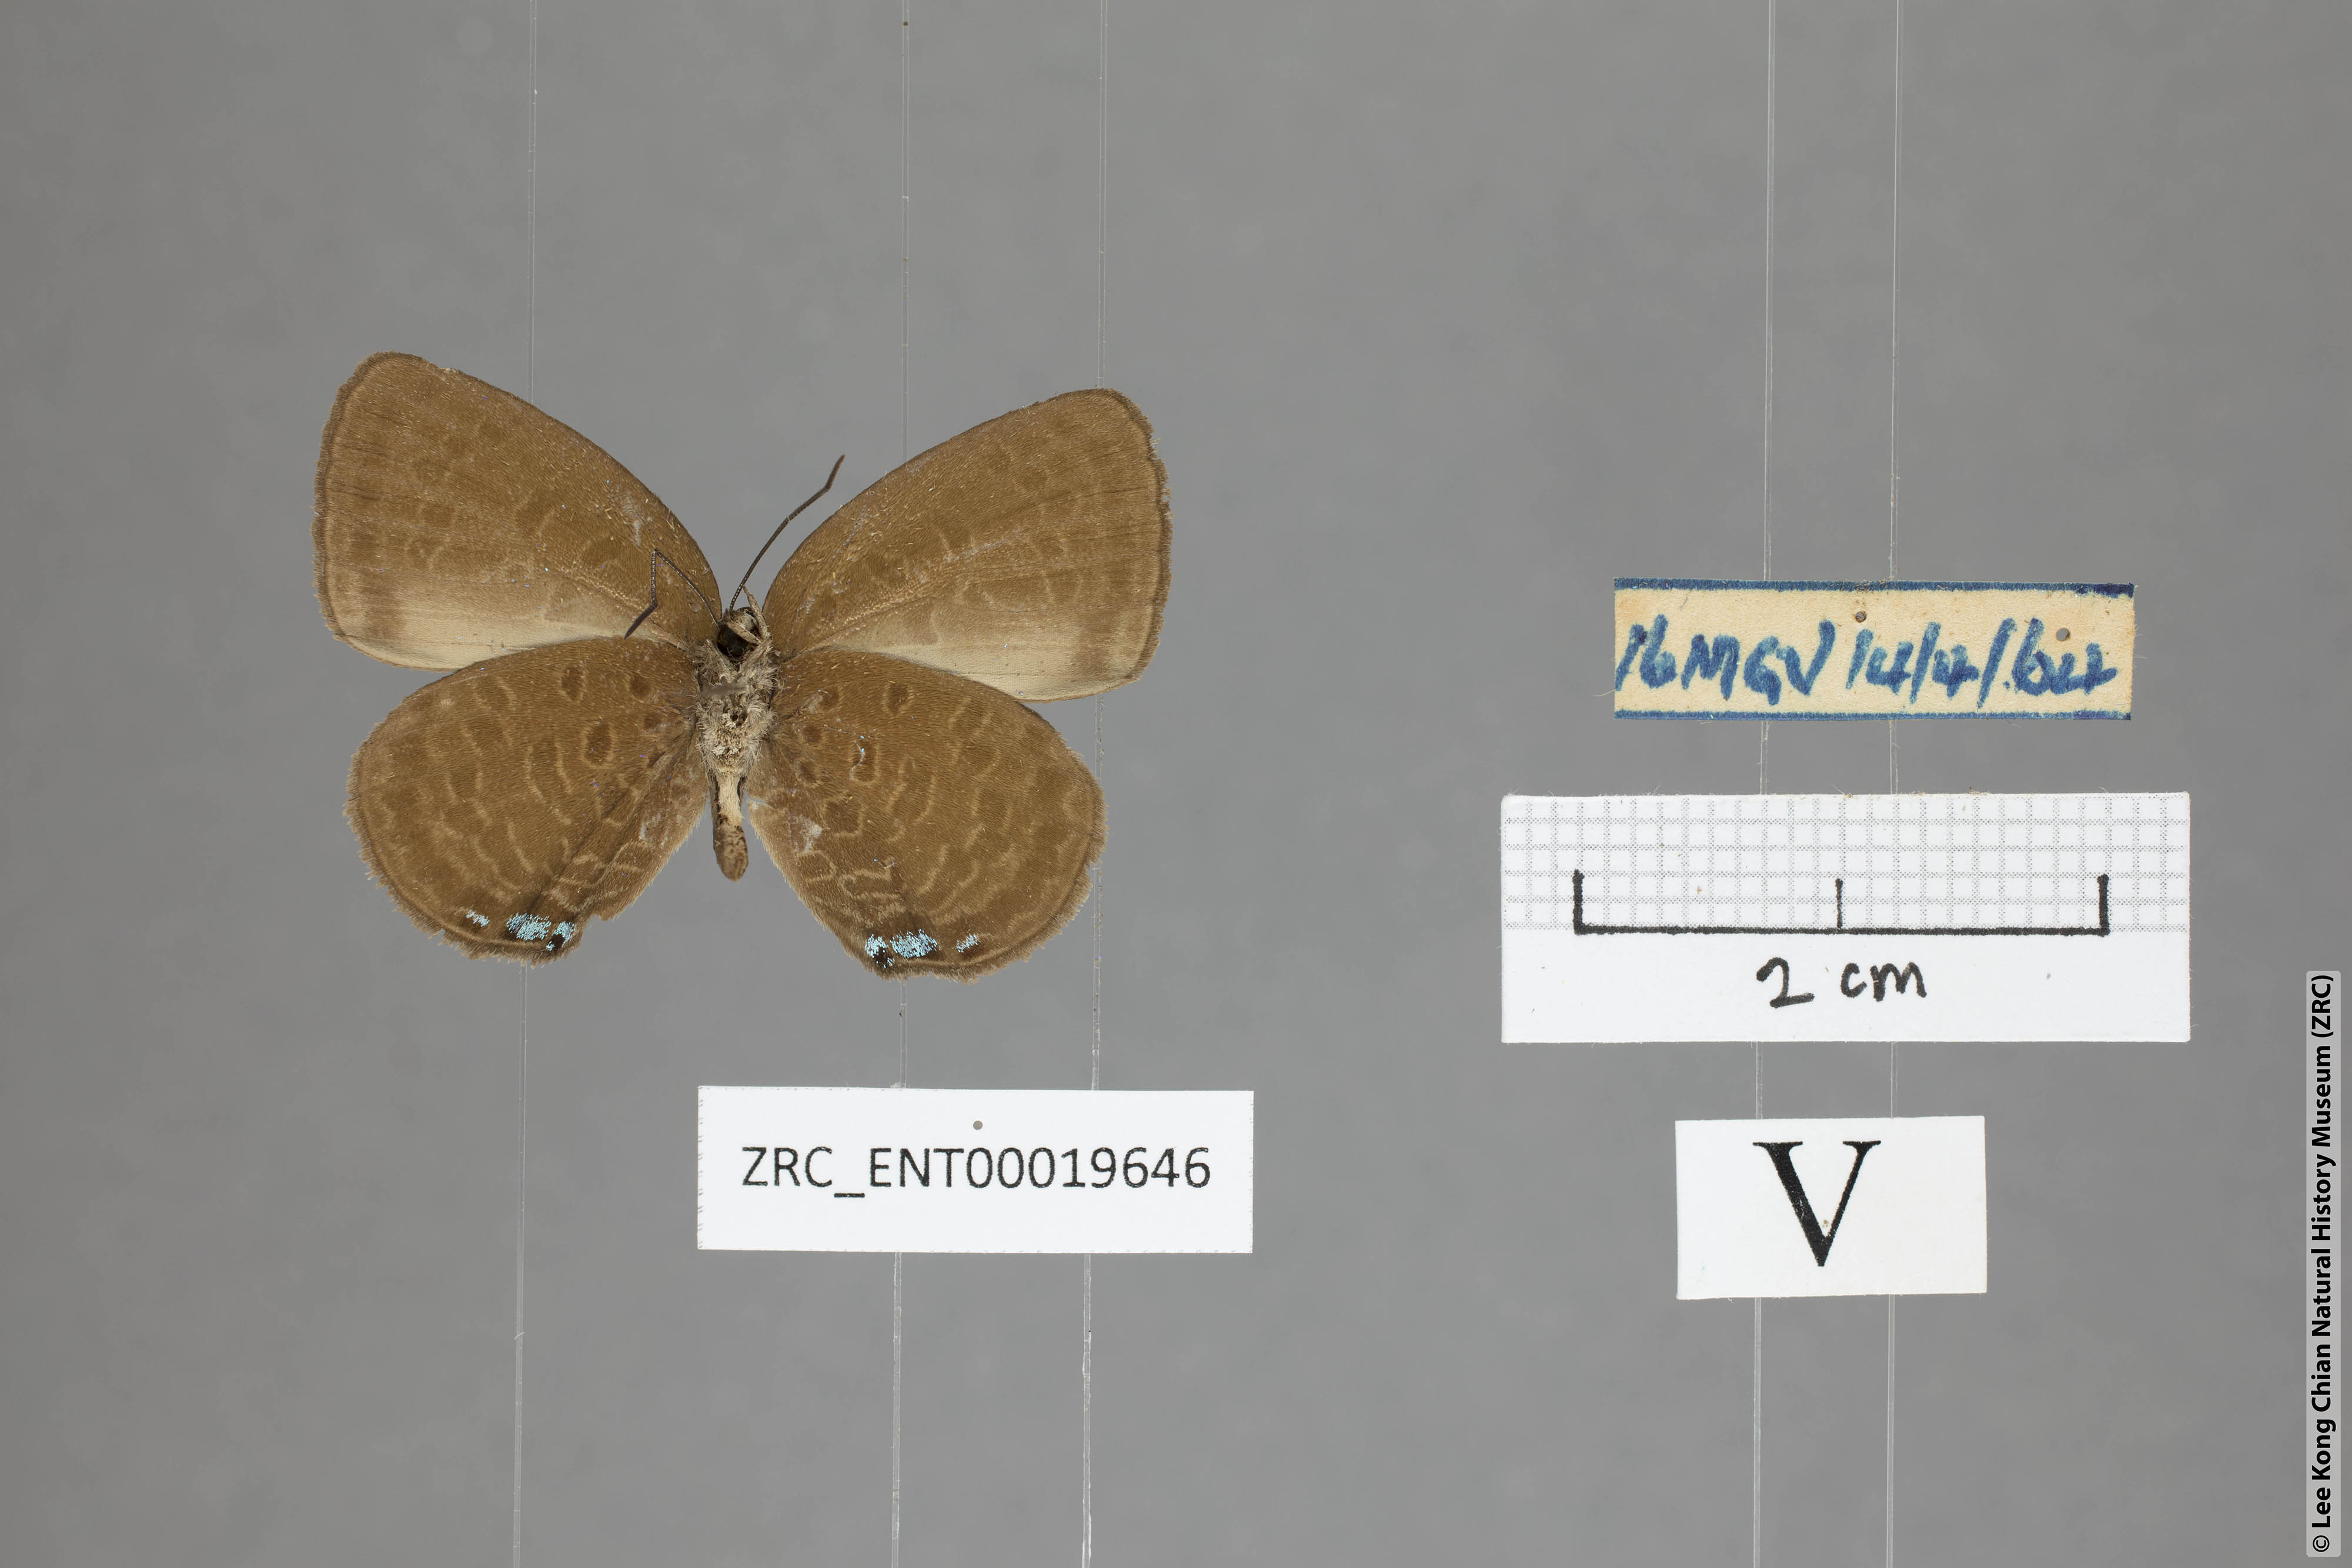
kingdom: Animalia
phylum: Arthropoda
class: Insecta
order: Lepidoptera
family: Lycaenidae
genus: Arhopala
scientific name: Arhopala metamuta
